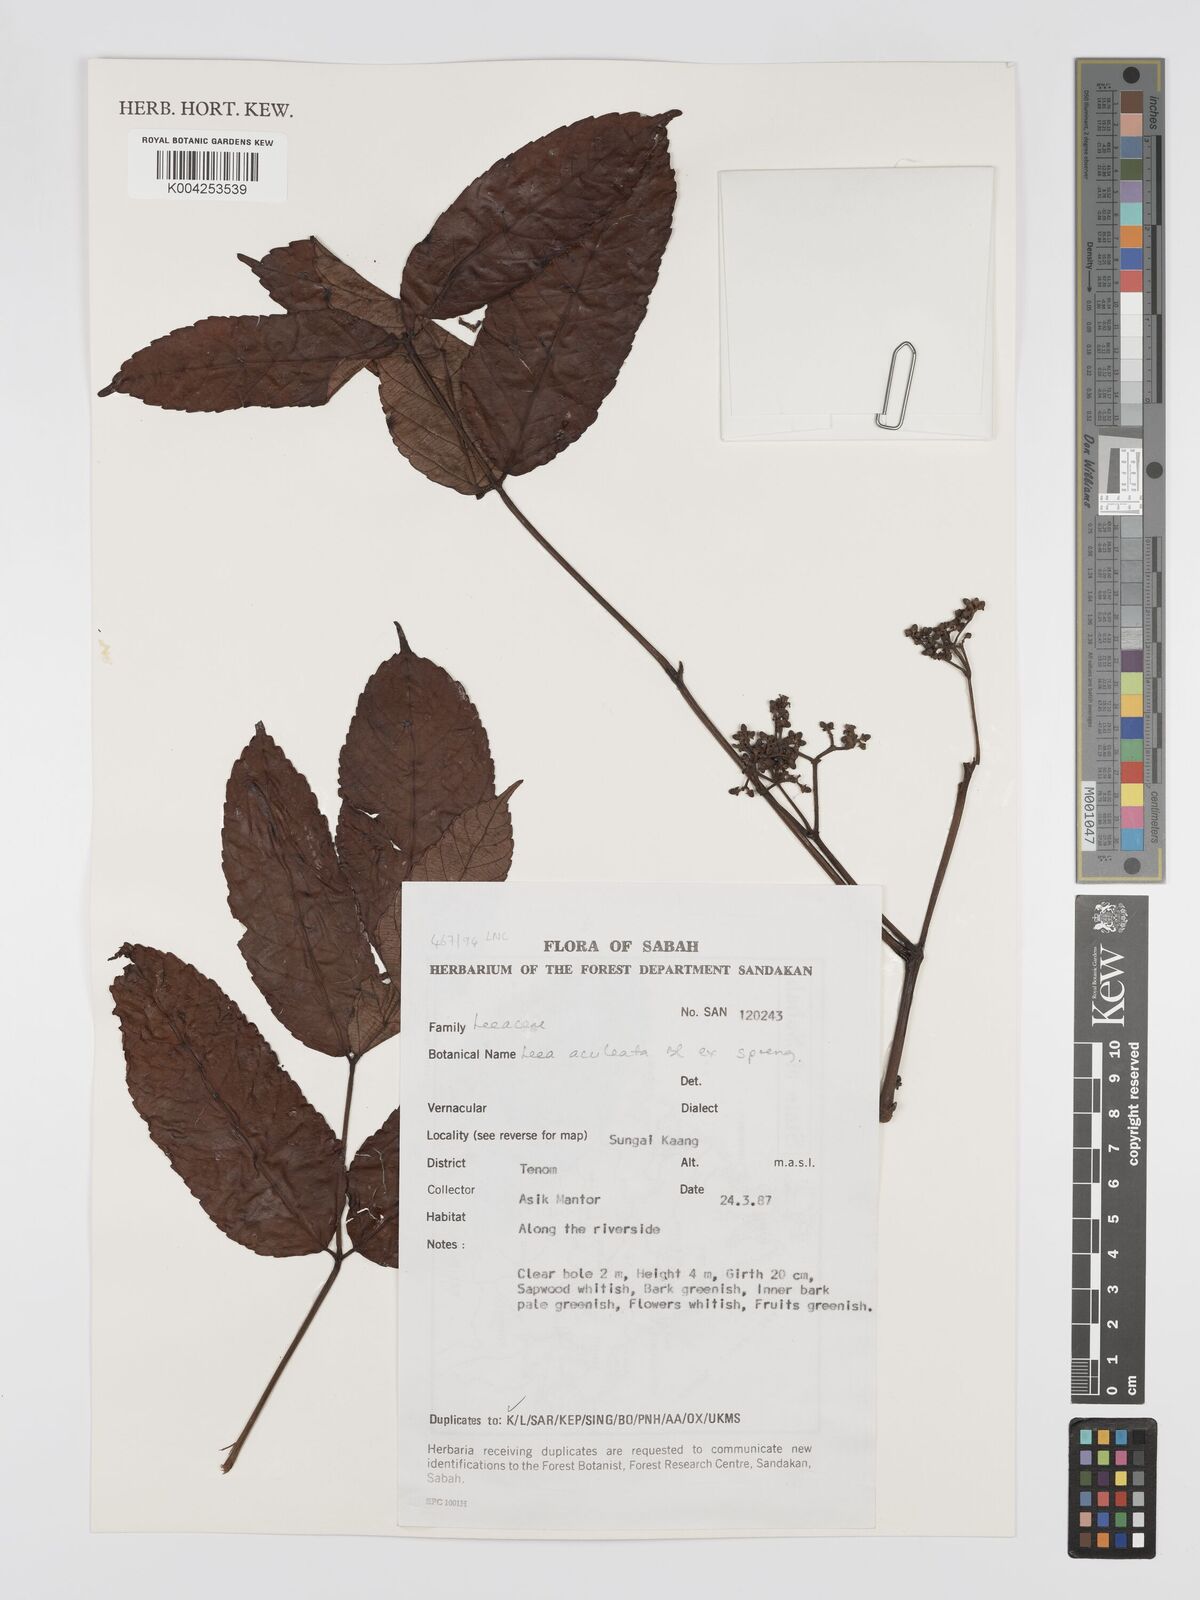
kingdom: Plantae
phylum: Tracheophyta
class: Magnoliopsida
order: Vitales
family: Vitaceae
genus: Leea
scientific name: Leea aculeata
